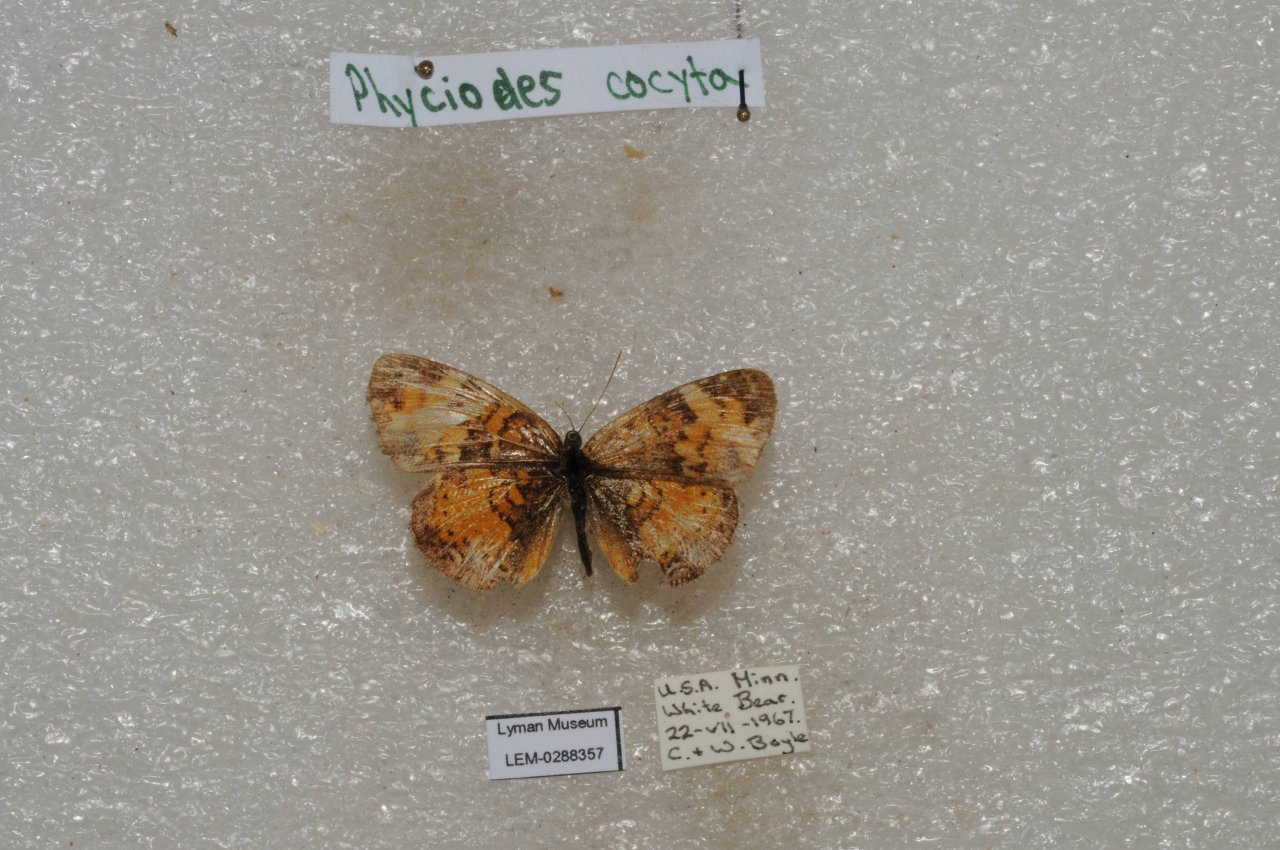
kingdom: Animalia
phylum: Arthropoda
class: Insecta
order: Lepidoptera
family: Nymphalidae
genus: Phyciodes
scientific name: Phyciodes tharos
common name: Northern Crescent
